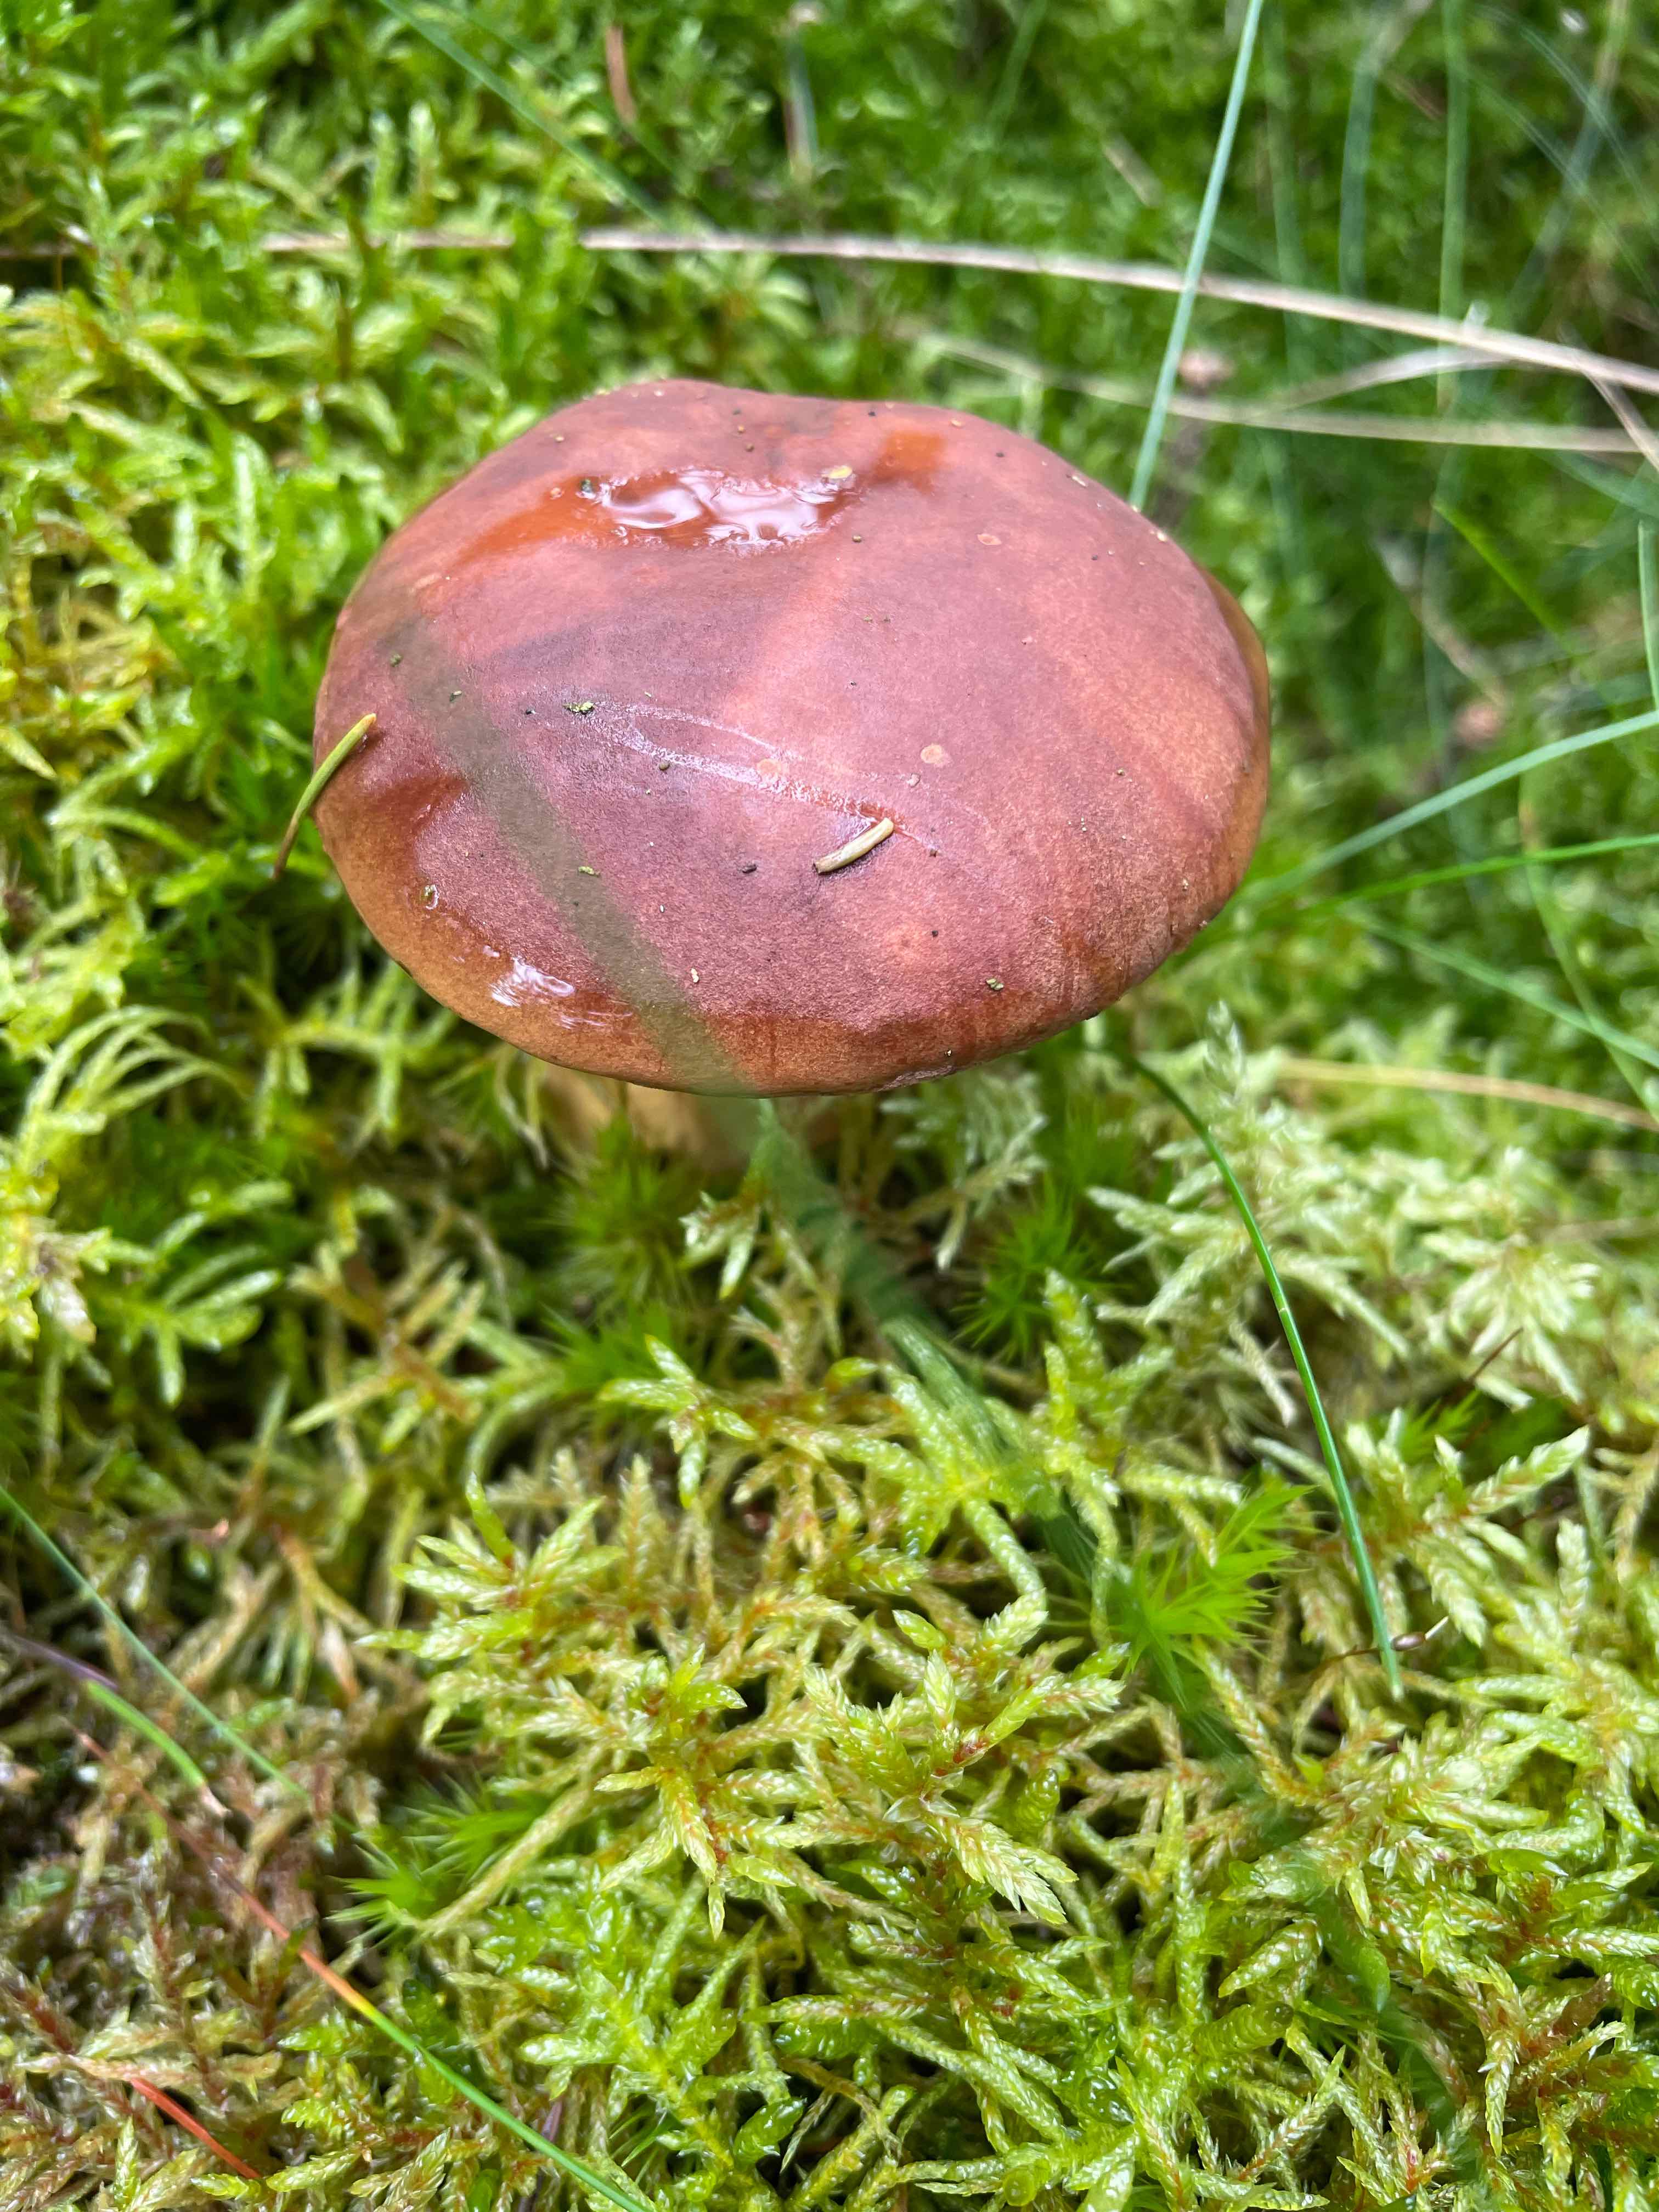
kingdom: Fungi
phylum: Basidiomycota
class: Agaricomycetes
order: Boletales
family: Boletaceae
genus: Imleria
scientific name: Imleria badia
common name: brunstokket rørhat
